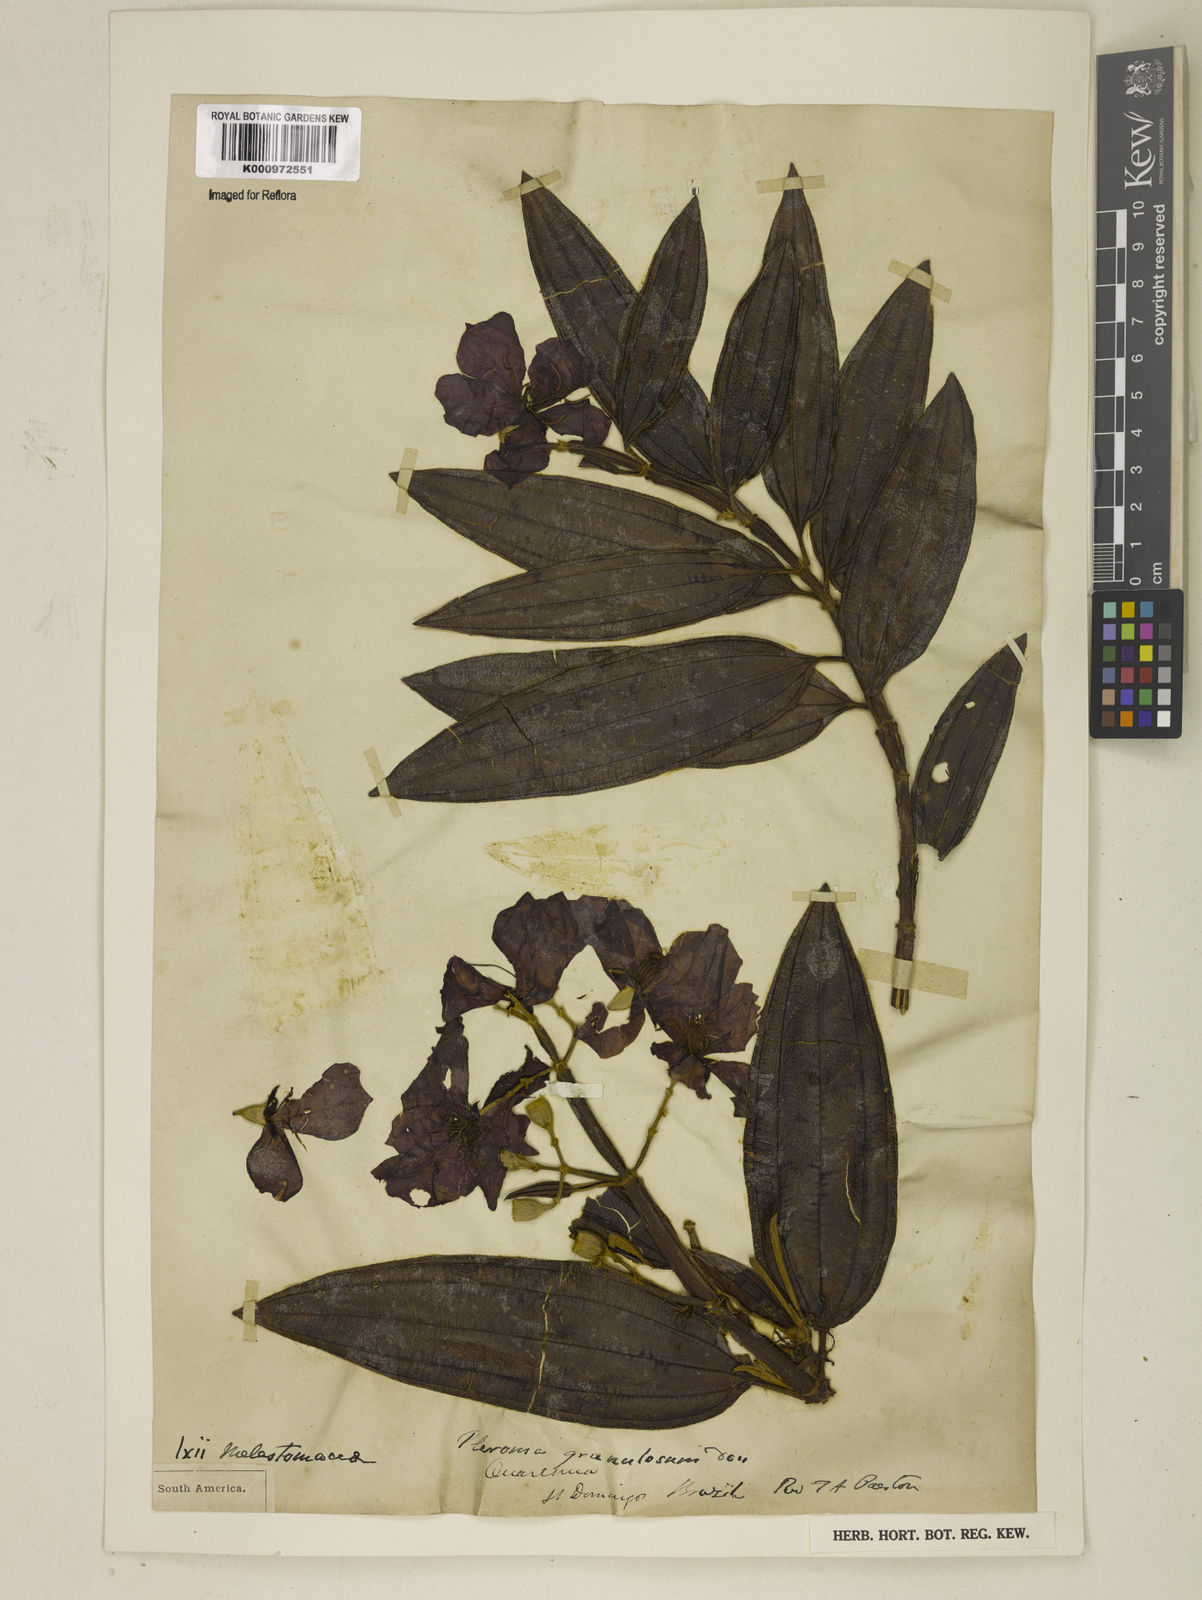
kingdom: Plantae
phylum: Tracheophyta
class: Magnoliopsida
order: Myrtales
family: Melastomataceae
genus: Pleroma
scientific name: Pleroma granulosum
